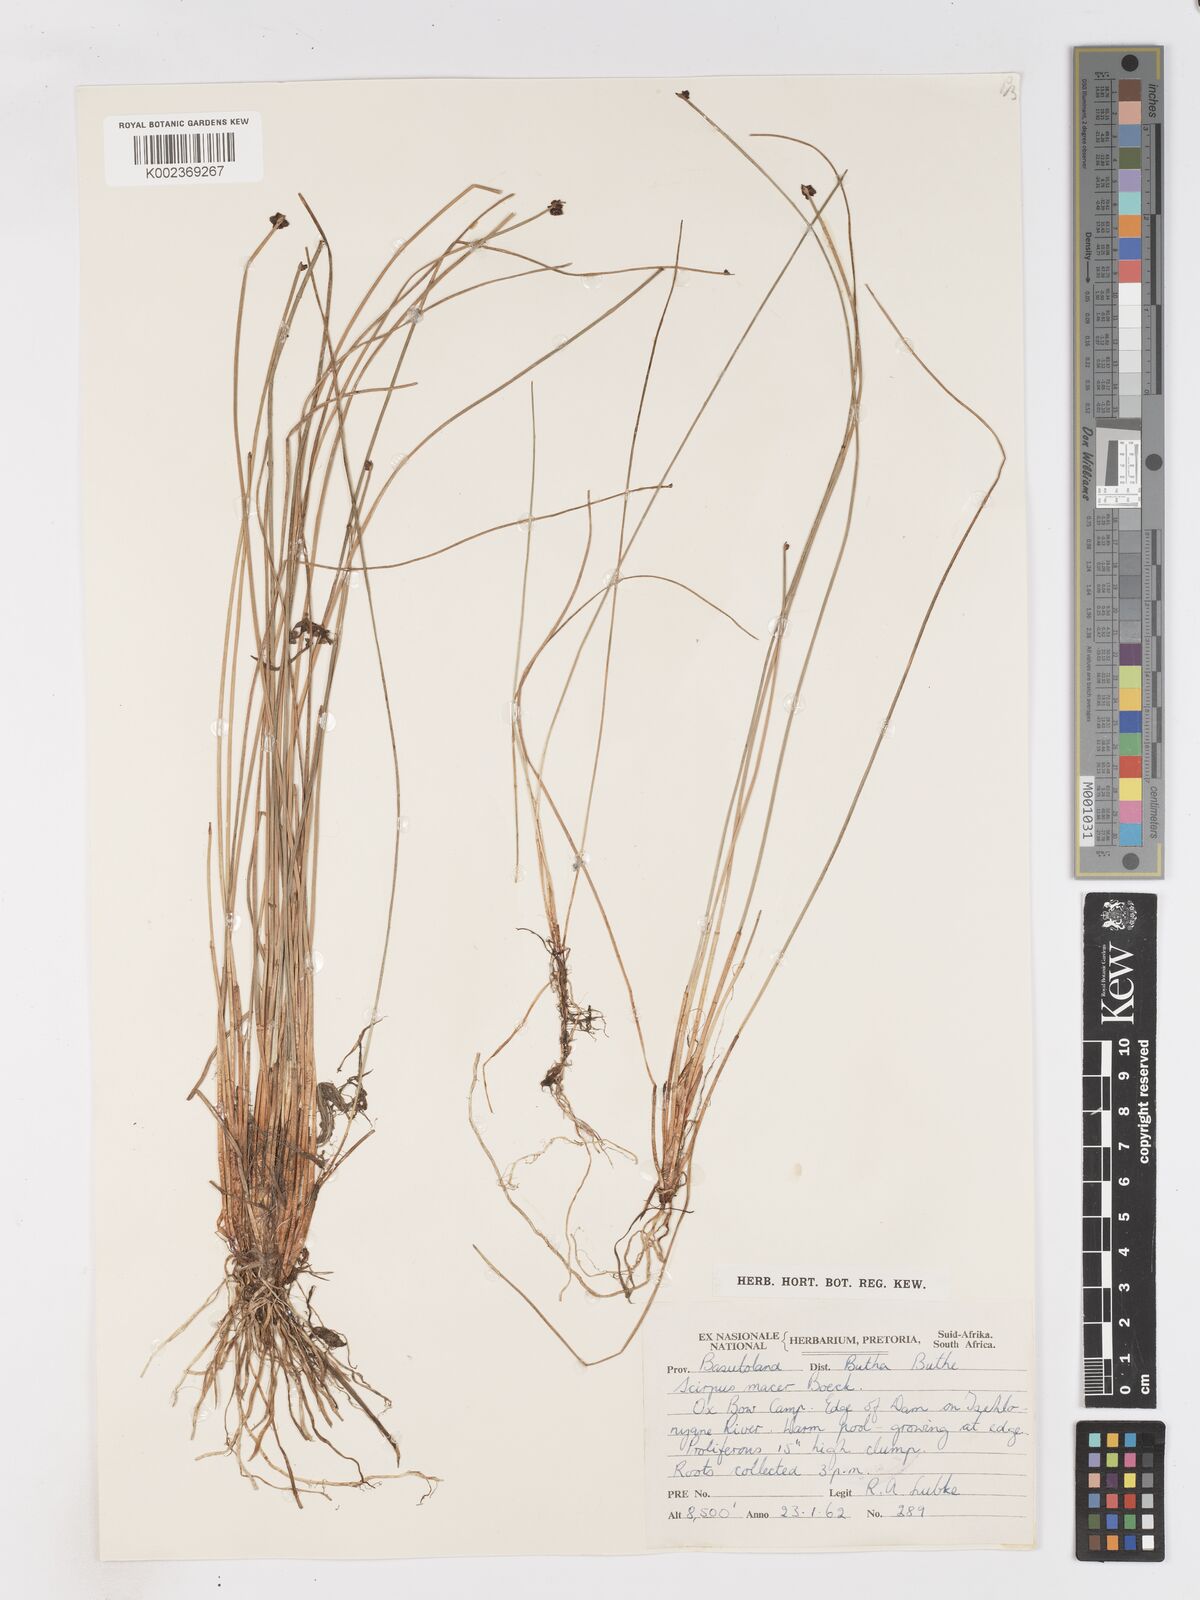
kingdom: Plantae
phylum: Tracheophyta
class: Liliopsida
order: Poales
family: Cyperaceae
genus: Isolepis
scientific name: Isolepis costata
